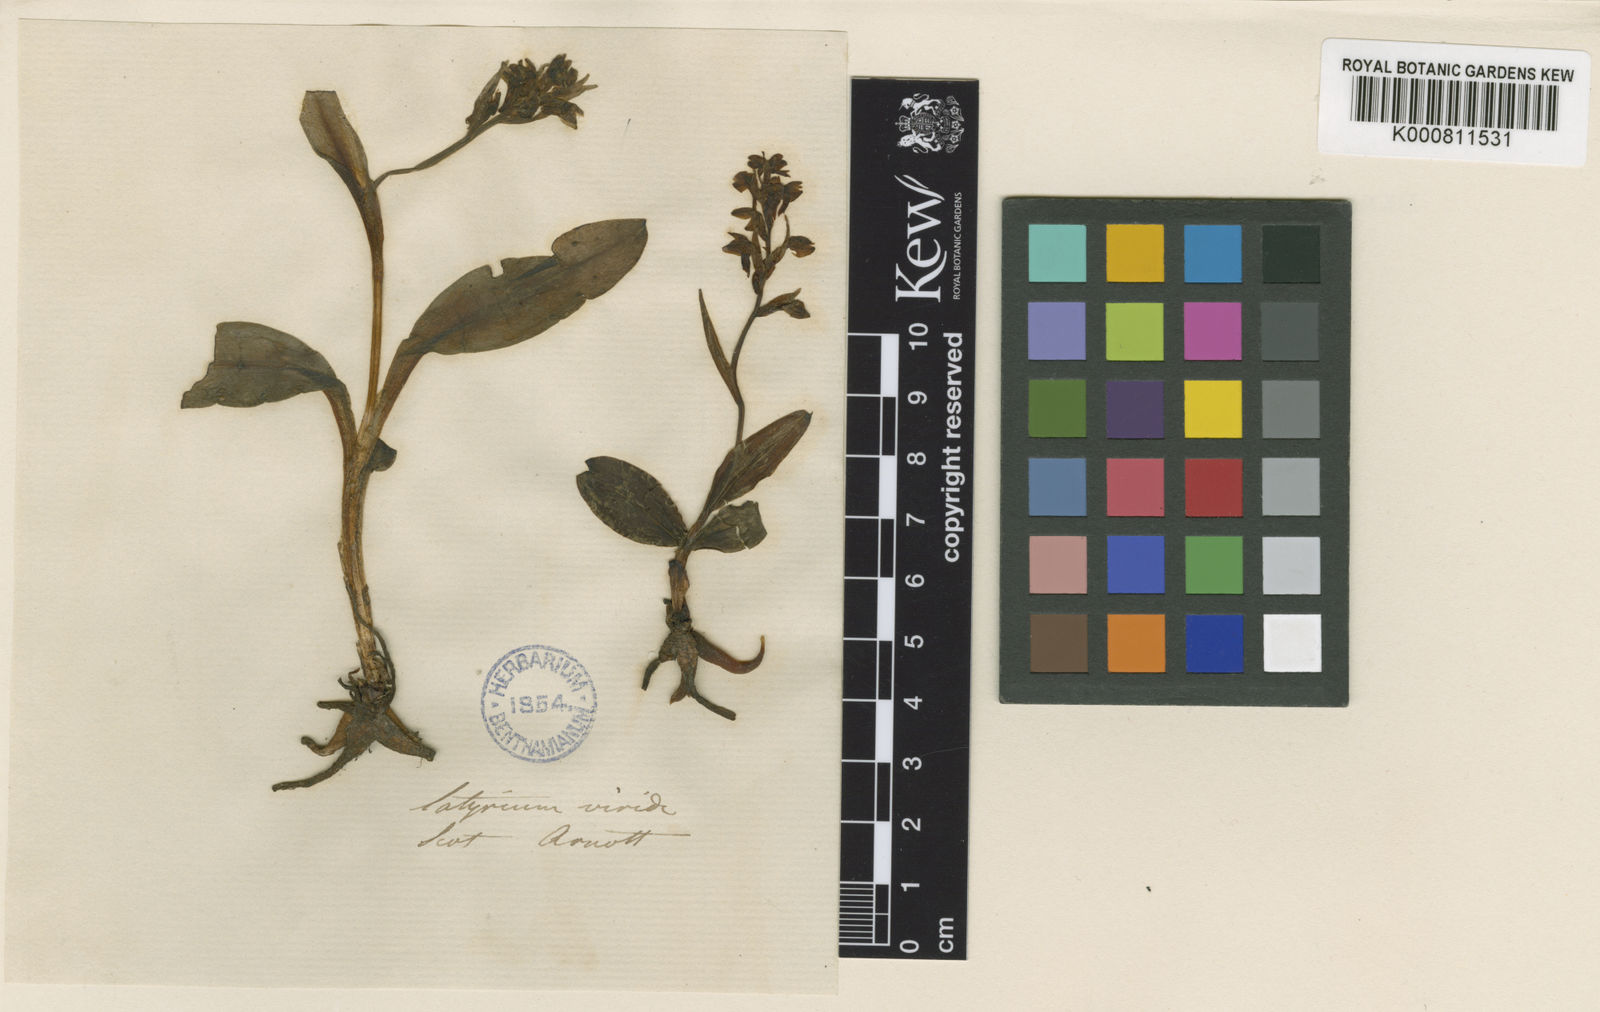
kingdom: Plantae
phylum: Tracheophyta
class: Liliopsida
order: Asparagales
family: Orchidaceae
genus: Dactylorhiza
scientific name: Dactylorhiza viridis
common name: Longbract frog orchid
